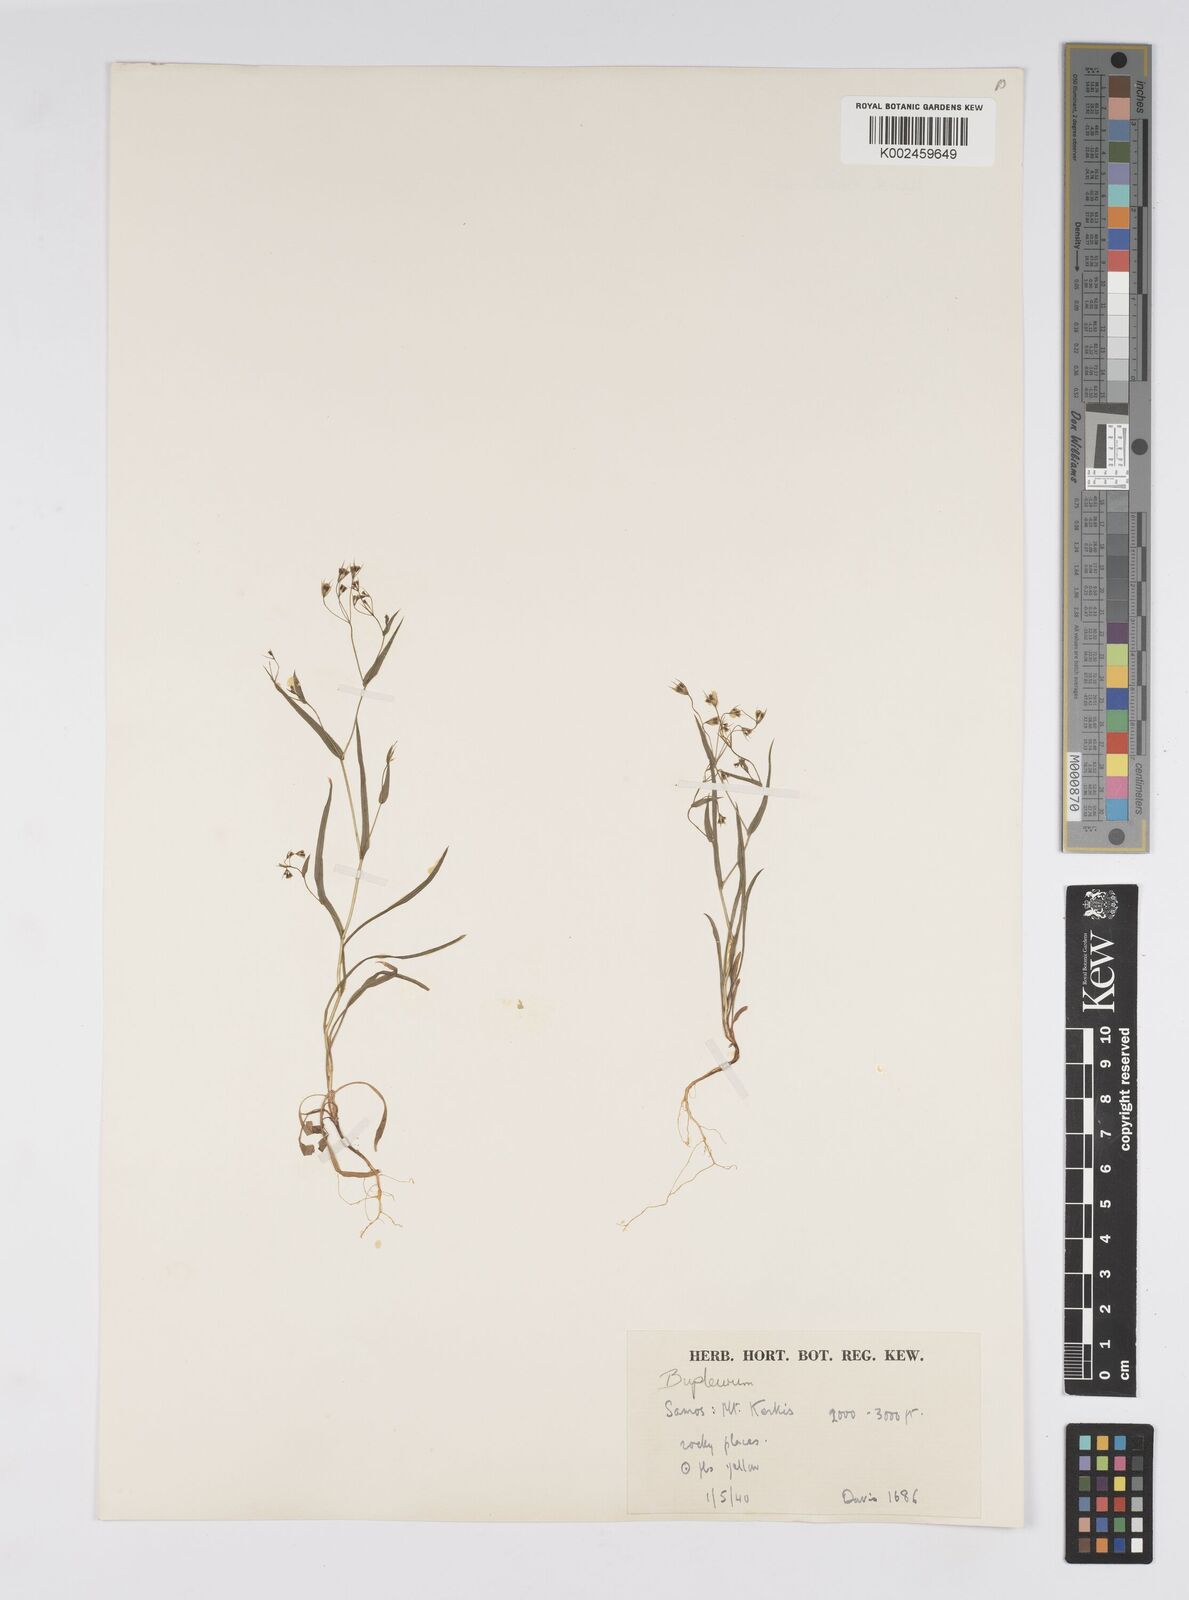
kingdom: Plantae
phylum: Tracheophyta
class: Magnoliopsida
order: Apiales
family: Apiaceae
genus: Bupleurum
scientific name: Bupleurum gerardi
